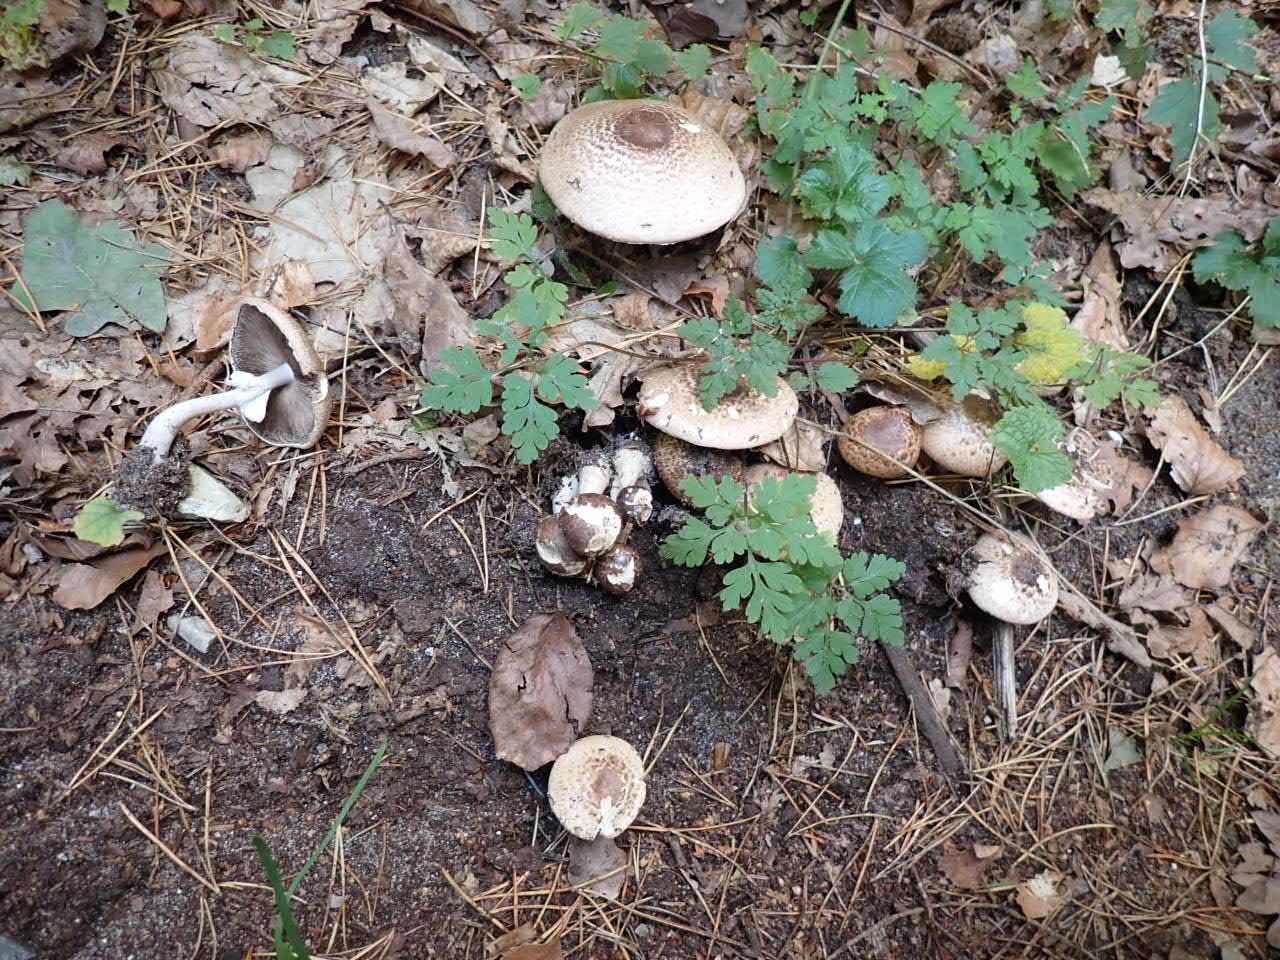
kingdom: Fungi
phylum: Basidiomycota
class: Agaricomycetes
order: Agaricales
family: Agaricaceae
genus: Agaricus
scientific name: Agaricus
